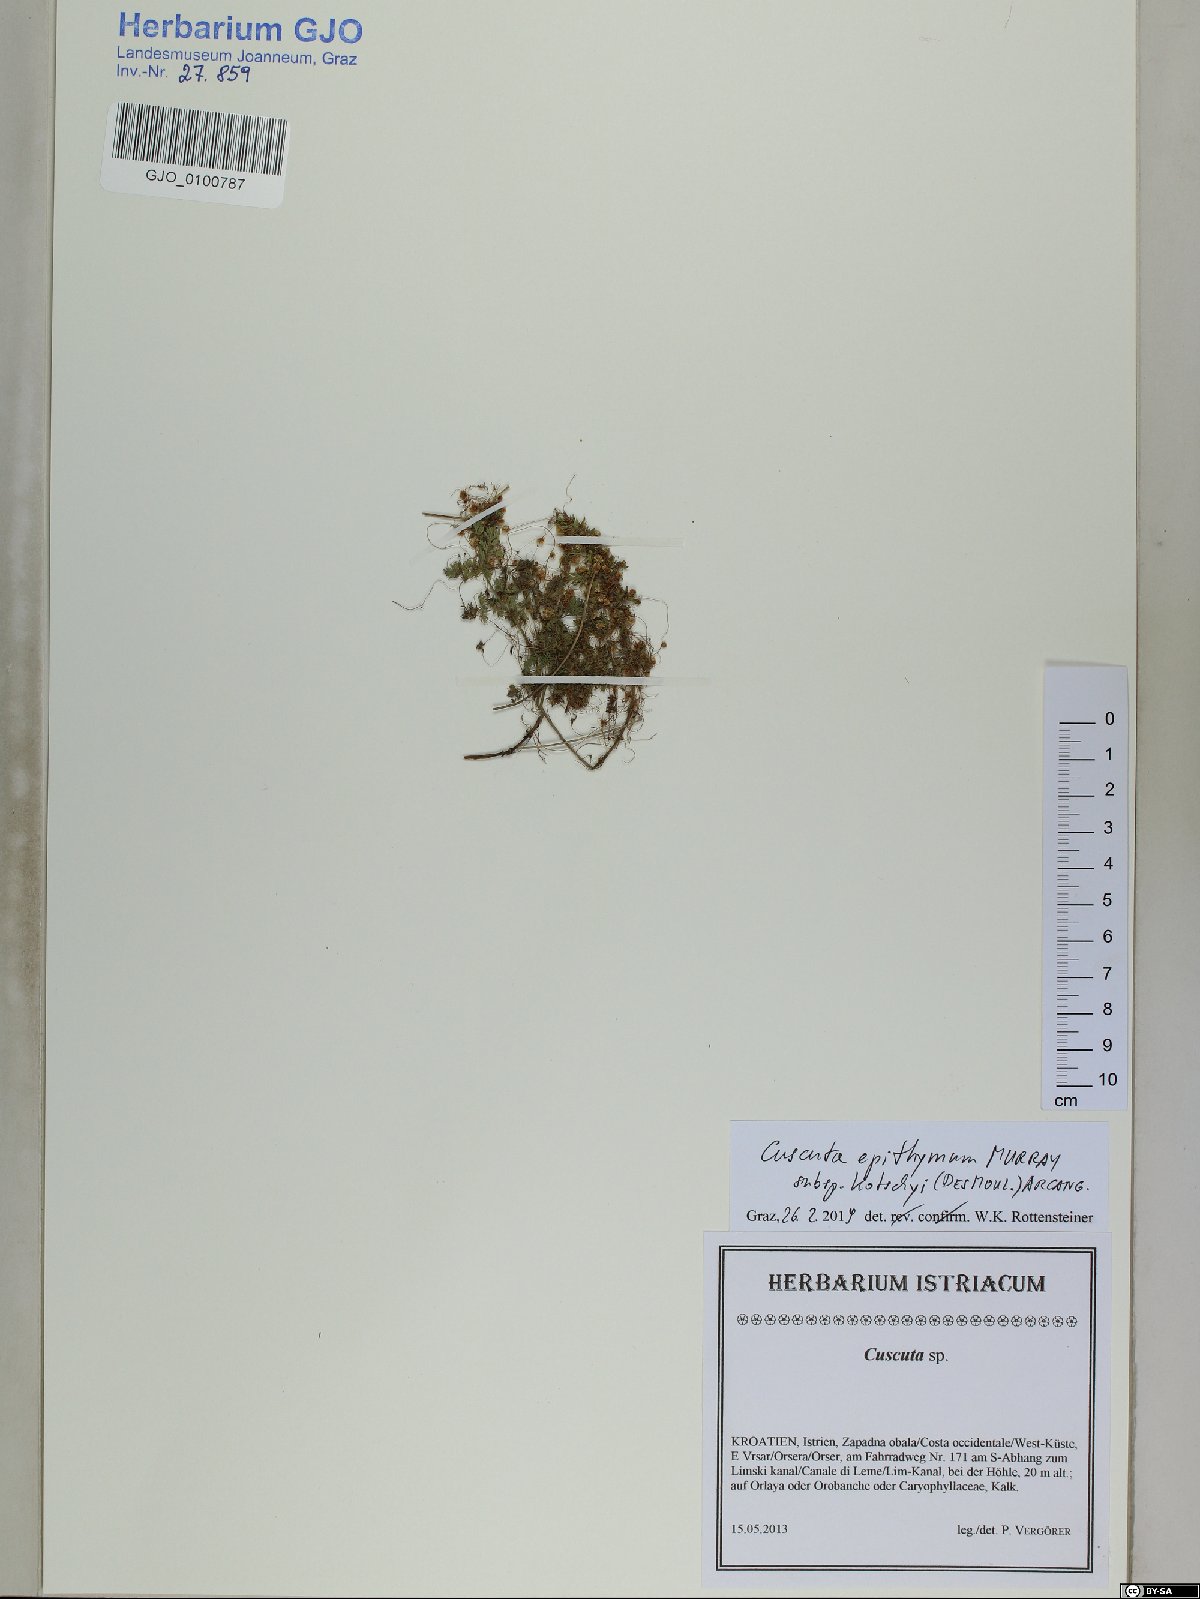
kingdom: Plantae
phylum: Tracheophyta
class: Magnoliopsida
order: Solanales
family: Convolvulaceae
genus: Cuscuta
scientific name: Cuscuta epithymum
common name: Clover dodder
